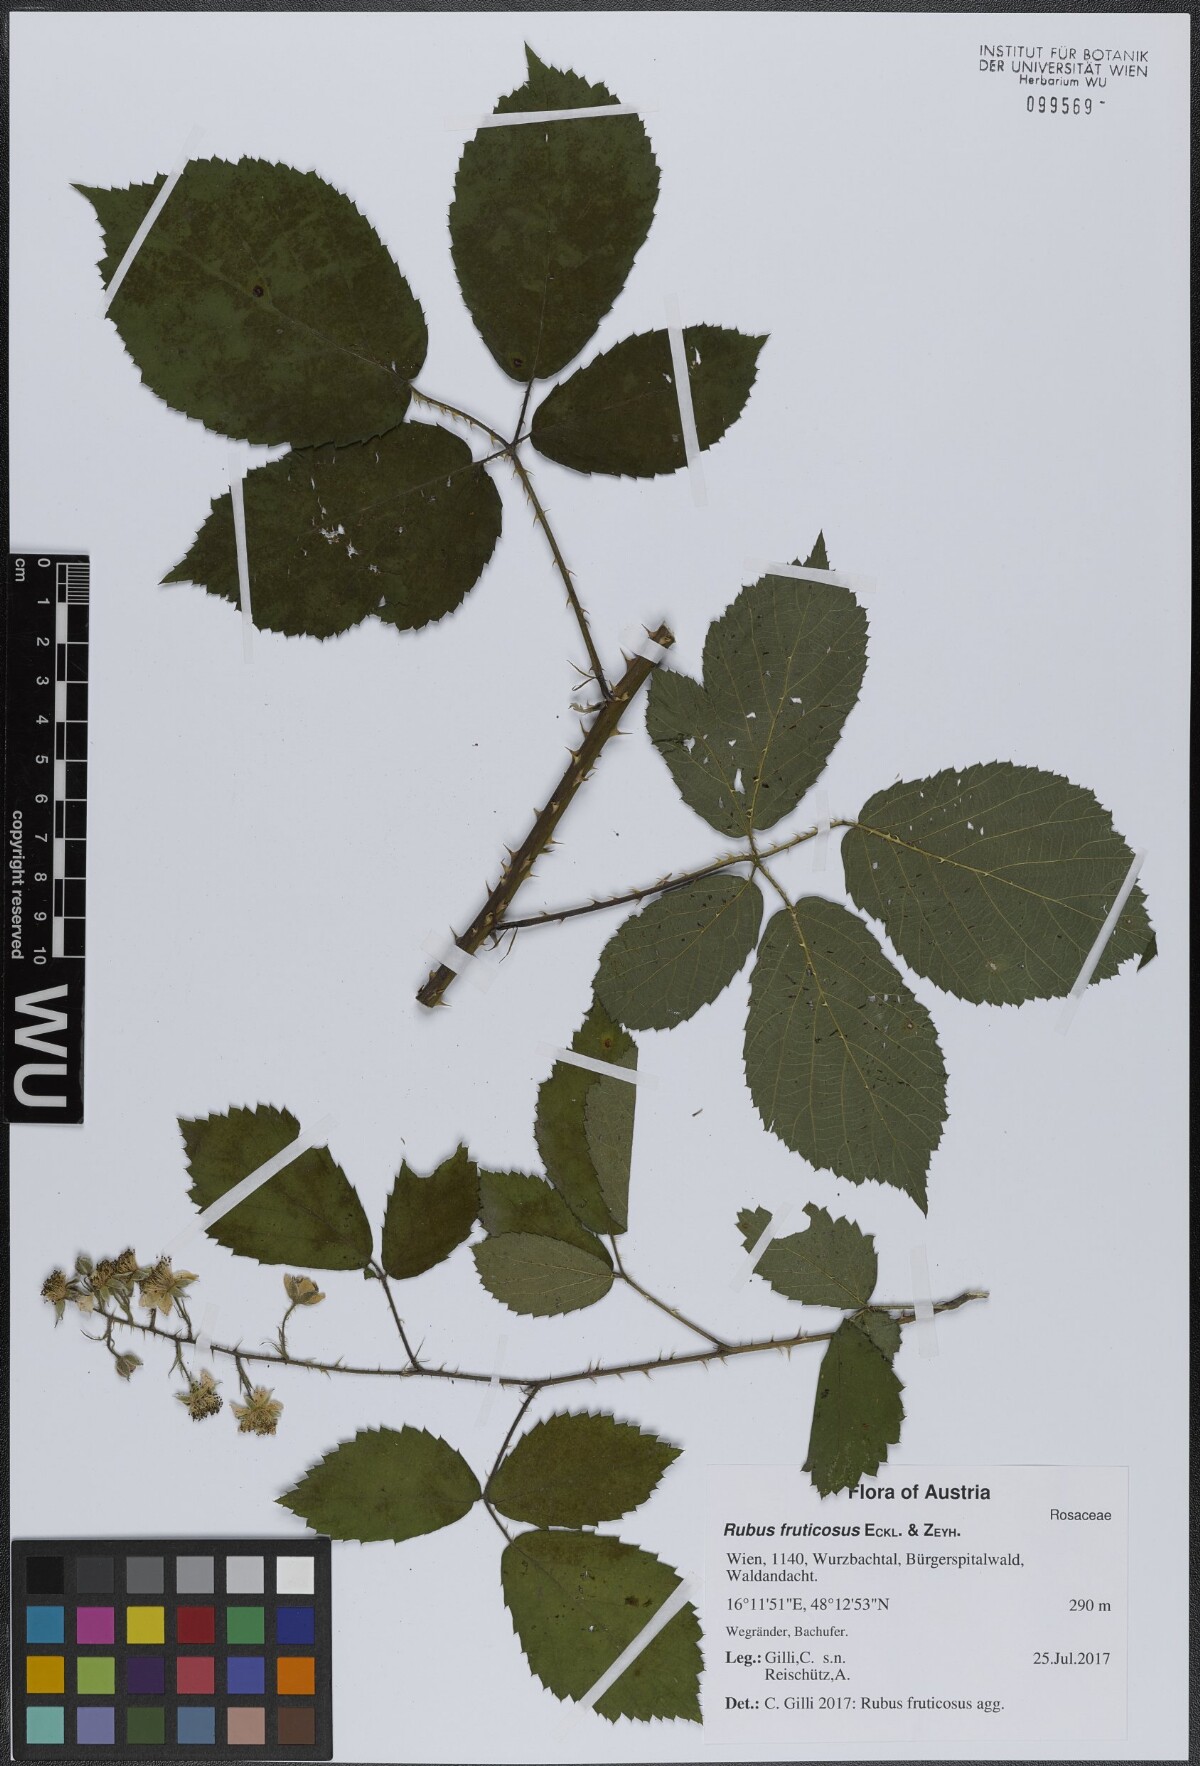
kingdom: Plantae
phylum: Tracheophyta
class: Magnoliopsida
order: Rosales
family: Rosaceae
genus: Rubus
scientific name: Rubus fruticosus
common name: Blackberry, bramble
